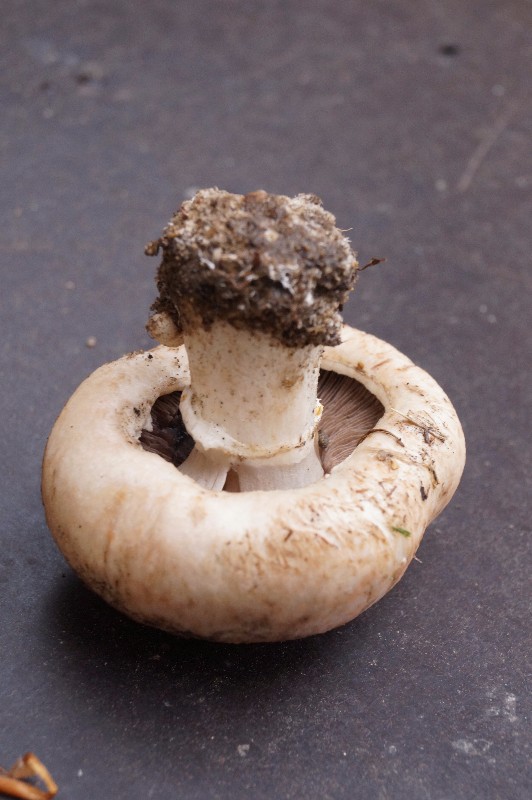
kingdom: Fungi
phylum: Basidiomycota
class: Agaricomycetes
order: Agaricales
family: Agaricaceae
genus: Agaricus
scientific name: Agaricus bisporus
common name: have-champignon
